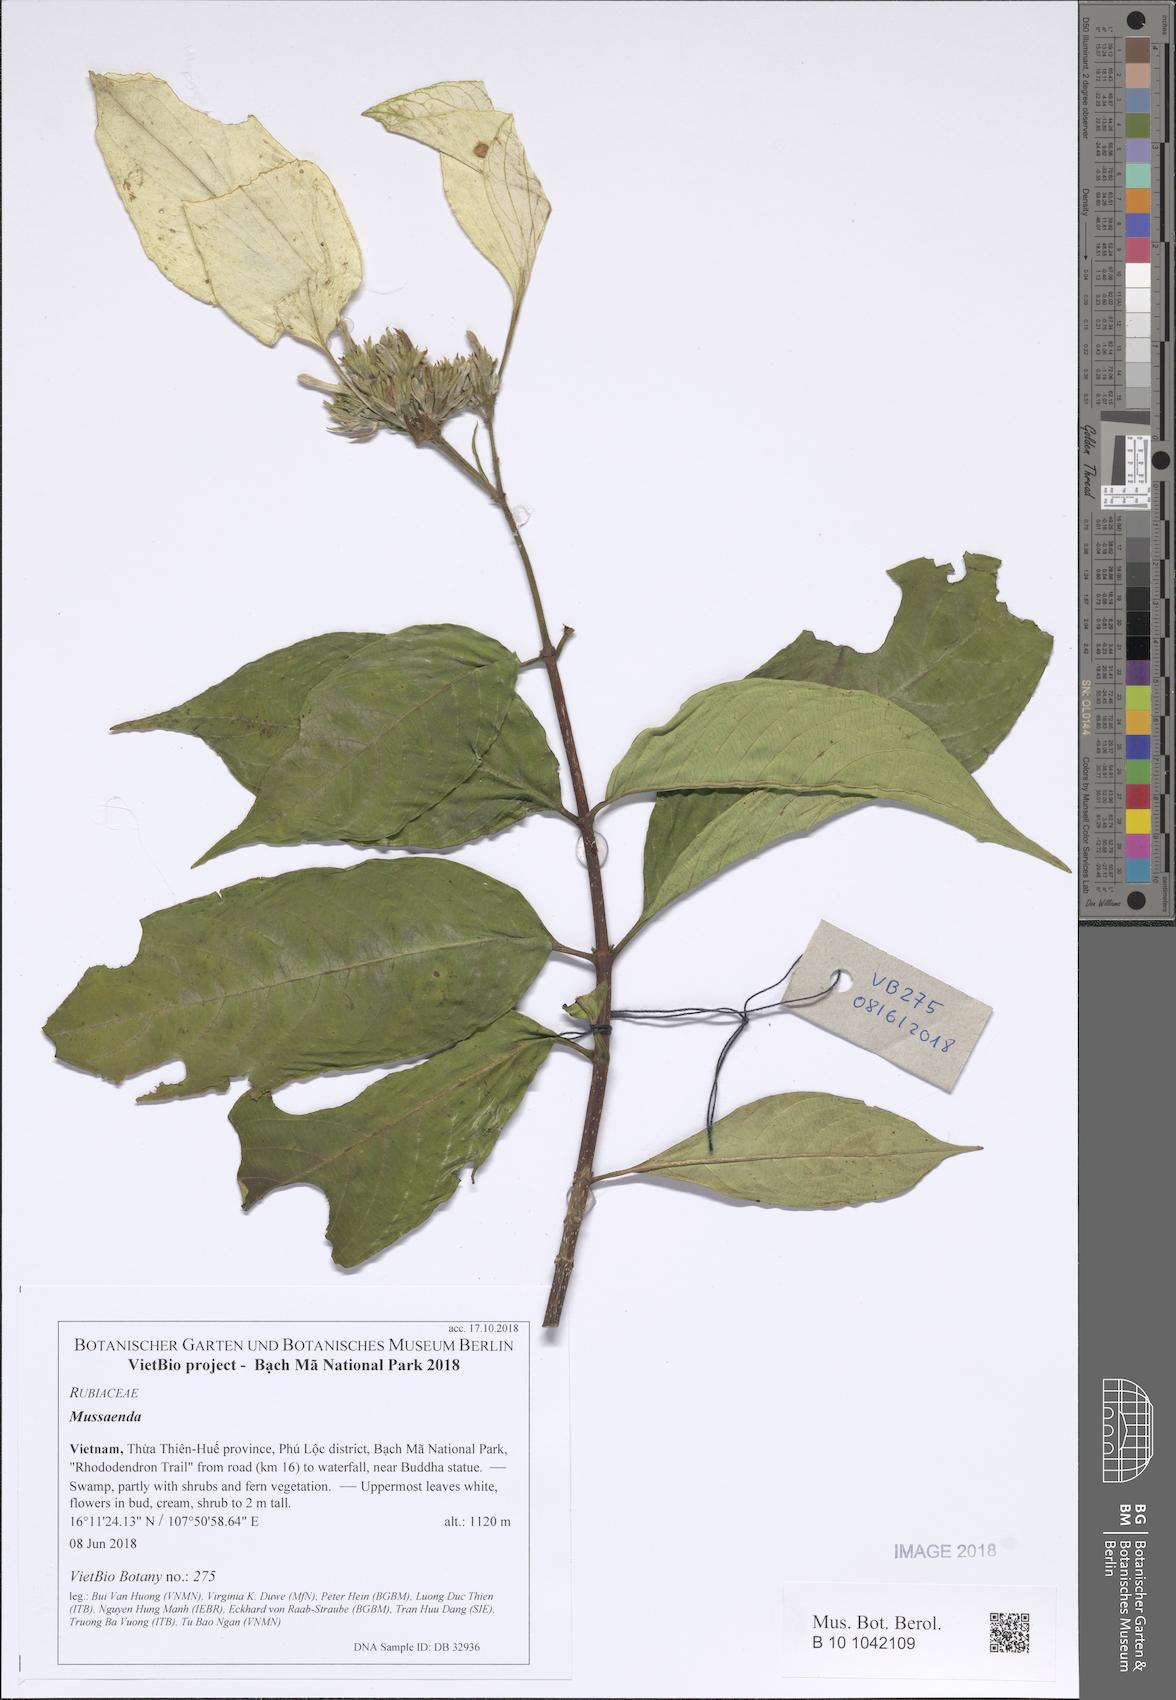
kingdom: Plantae
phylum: Tracheophyta
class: Magnoliopsida
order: Gentianales
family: Rubiaceae
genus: Mussaenda
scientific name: Mussaenda
